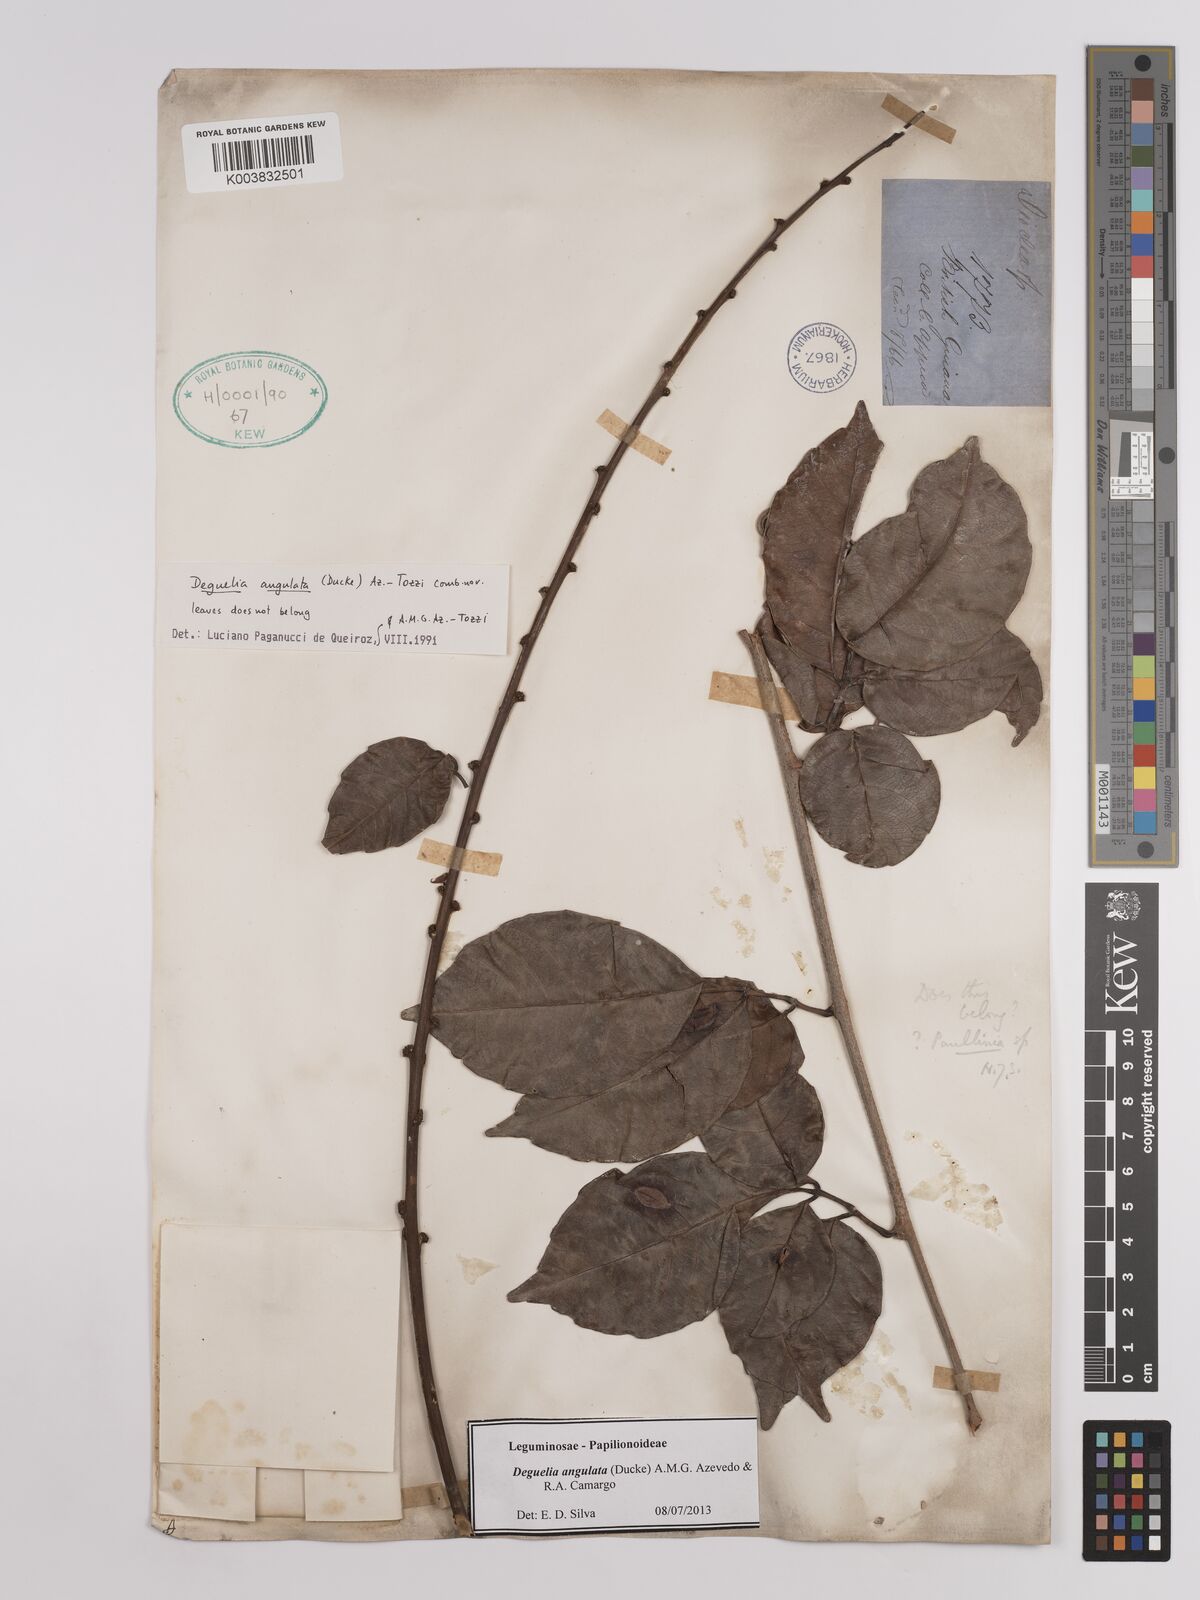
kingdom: Plantae
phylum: Tracheophyta
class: Magnoliopsida
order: Fabales
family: Fabaceae
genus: Deguelia
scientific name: Deguelia angulata
